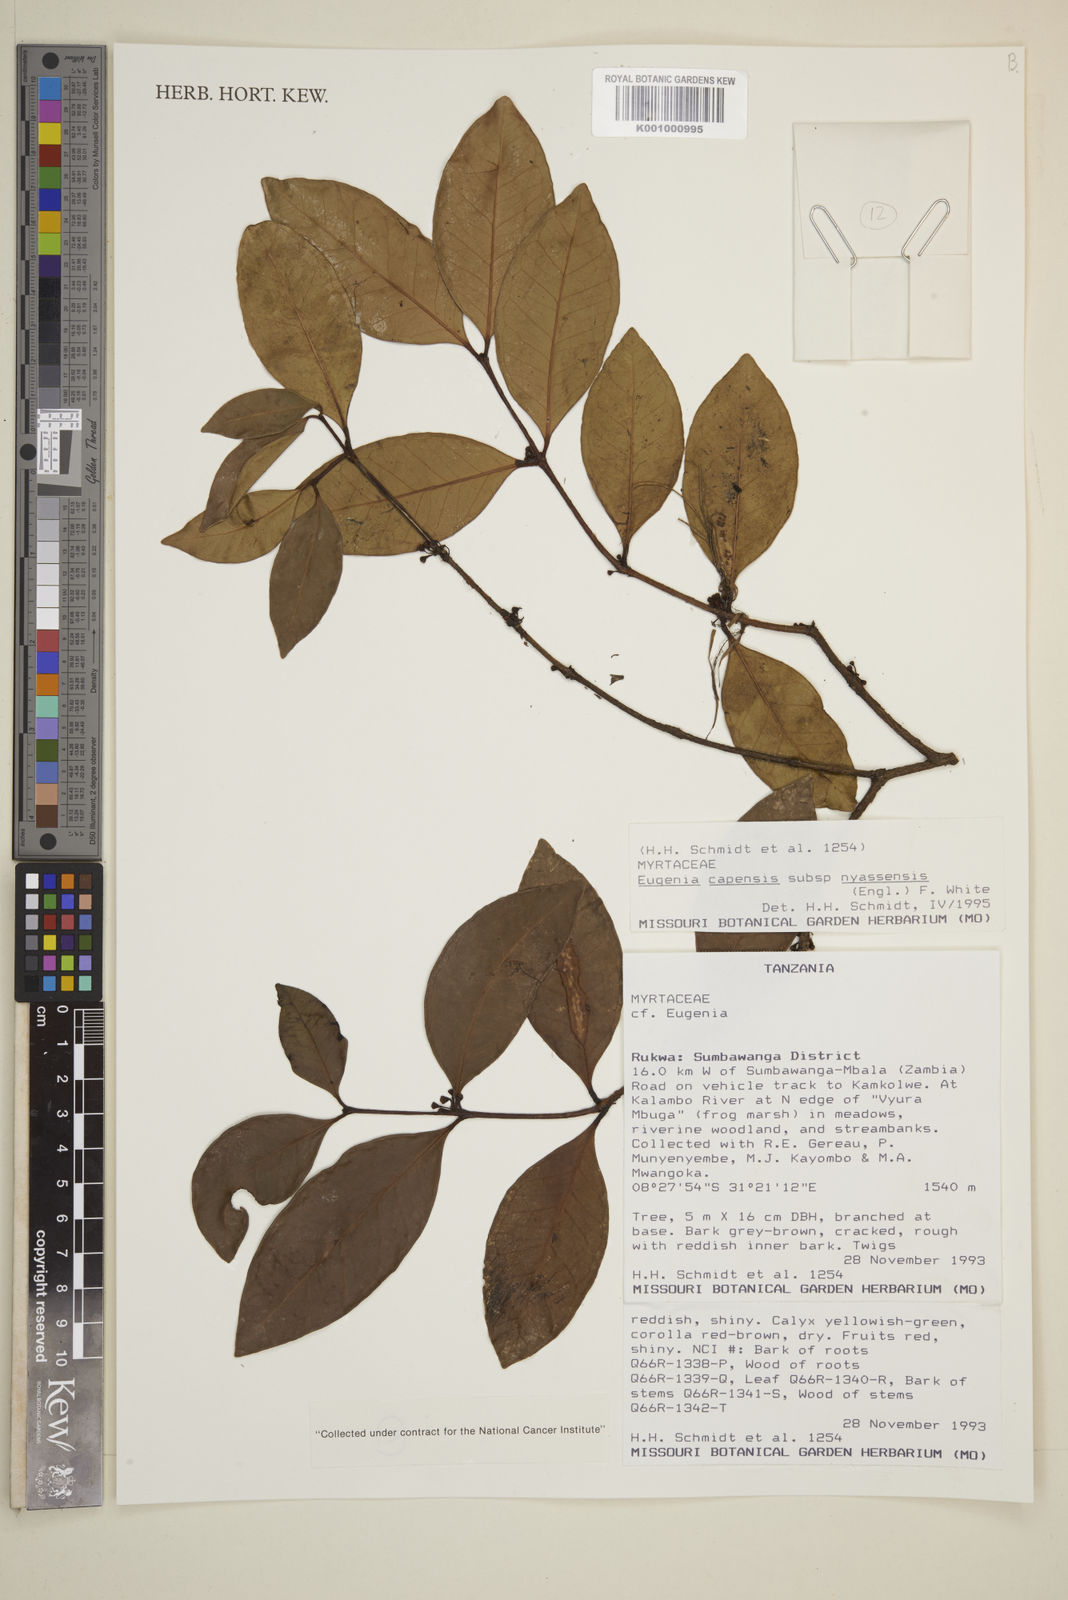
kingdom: Plantae
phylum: Tracheophyta
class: Magnoliopsida
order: Myrtales
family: Myrtaceae
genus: Eugenia
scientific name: Eugenia capensis
